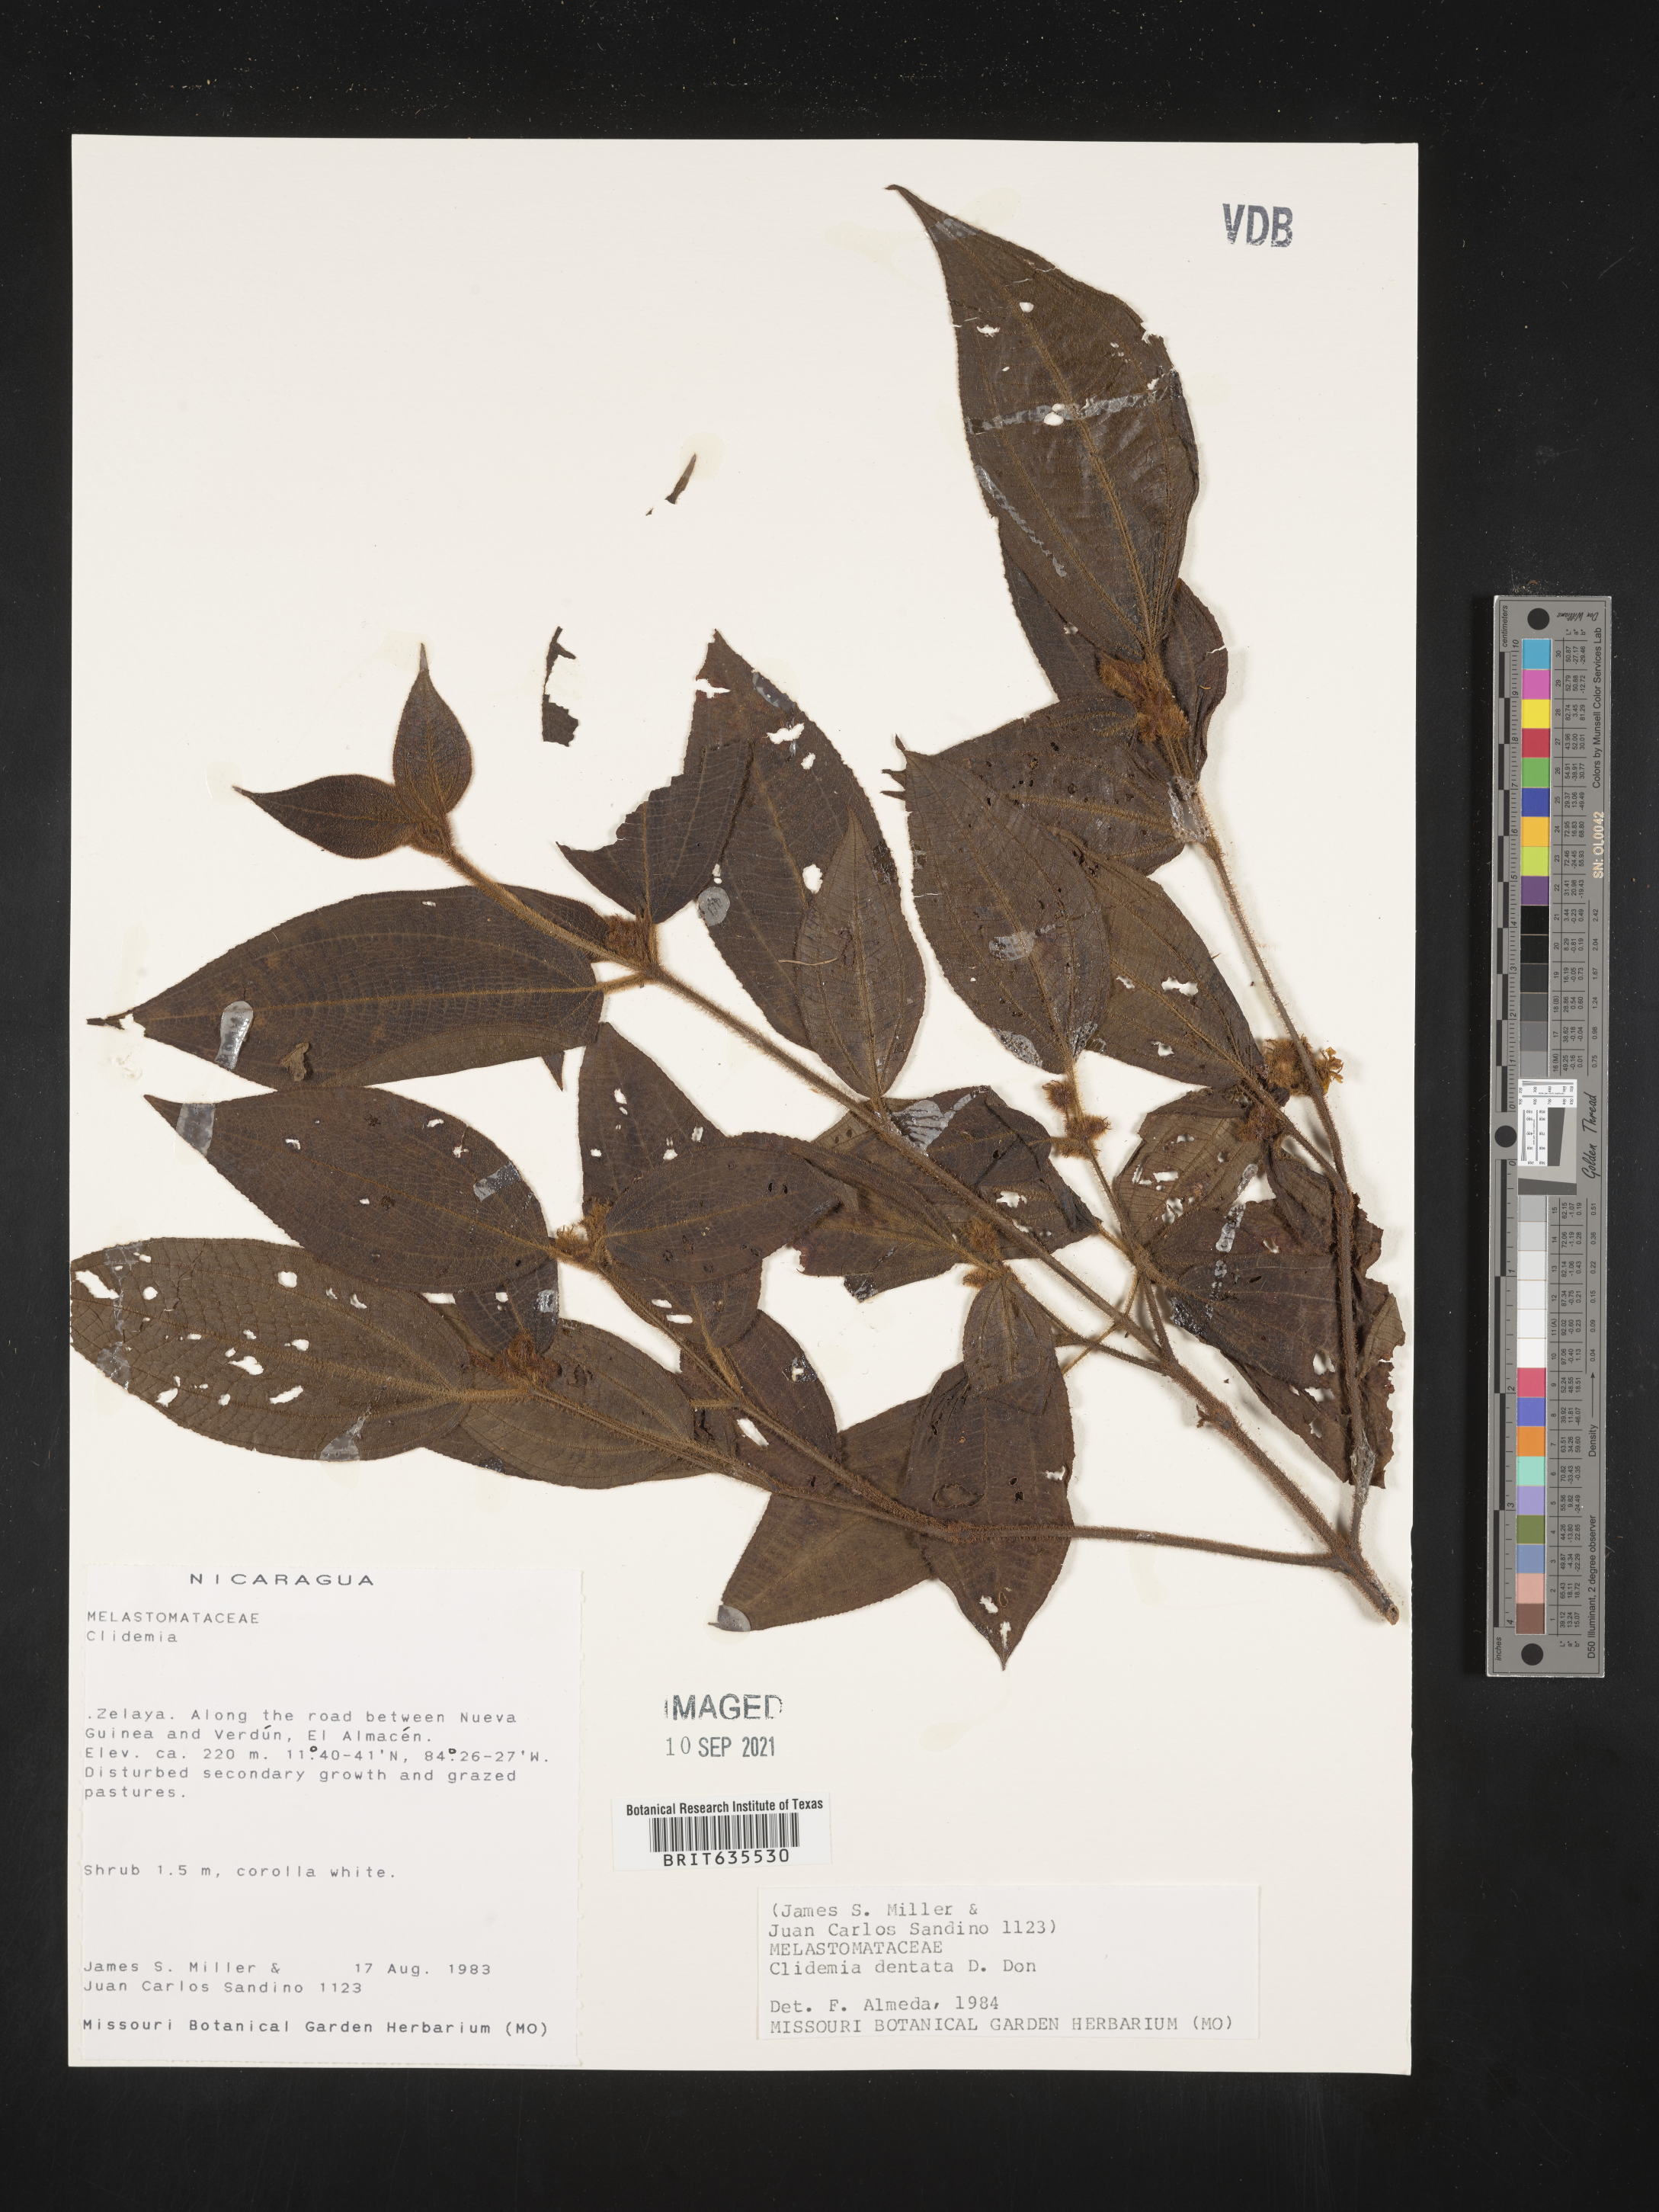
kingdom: Plantae
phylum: Tracheophyta
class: Magnoliopsida
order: Myrtales
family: Melastomataceae
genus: Miconia
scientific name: Miconia
